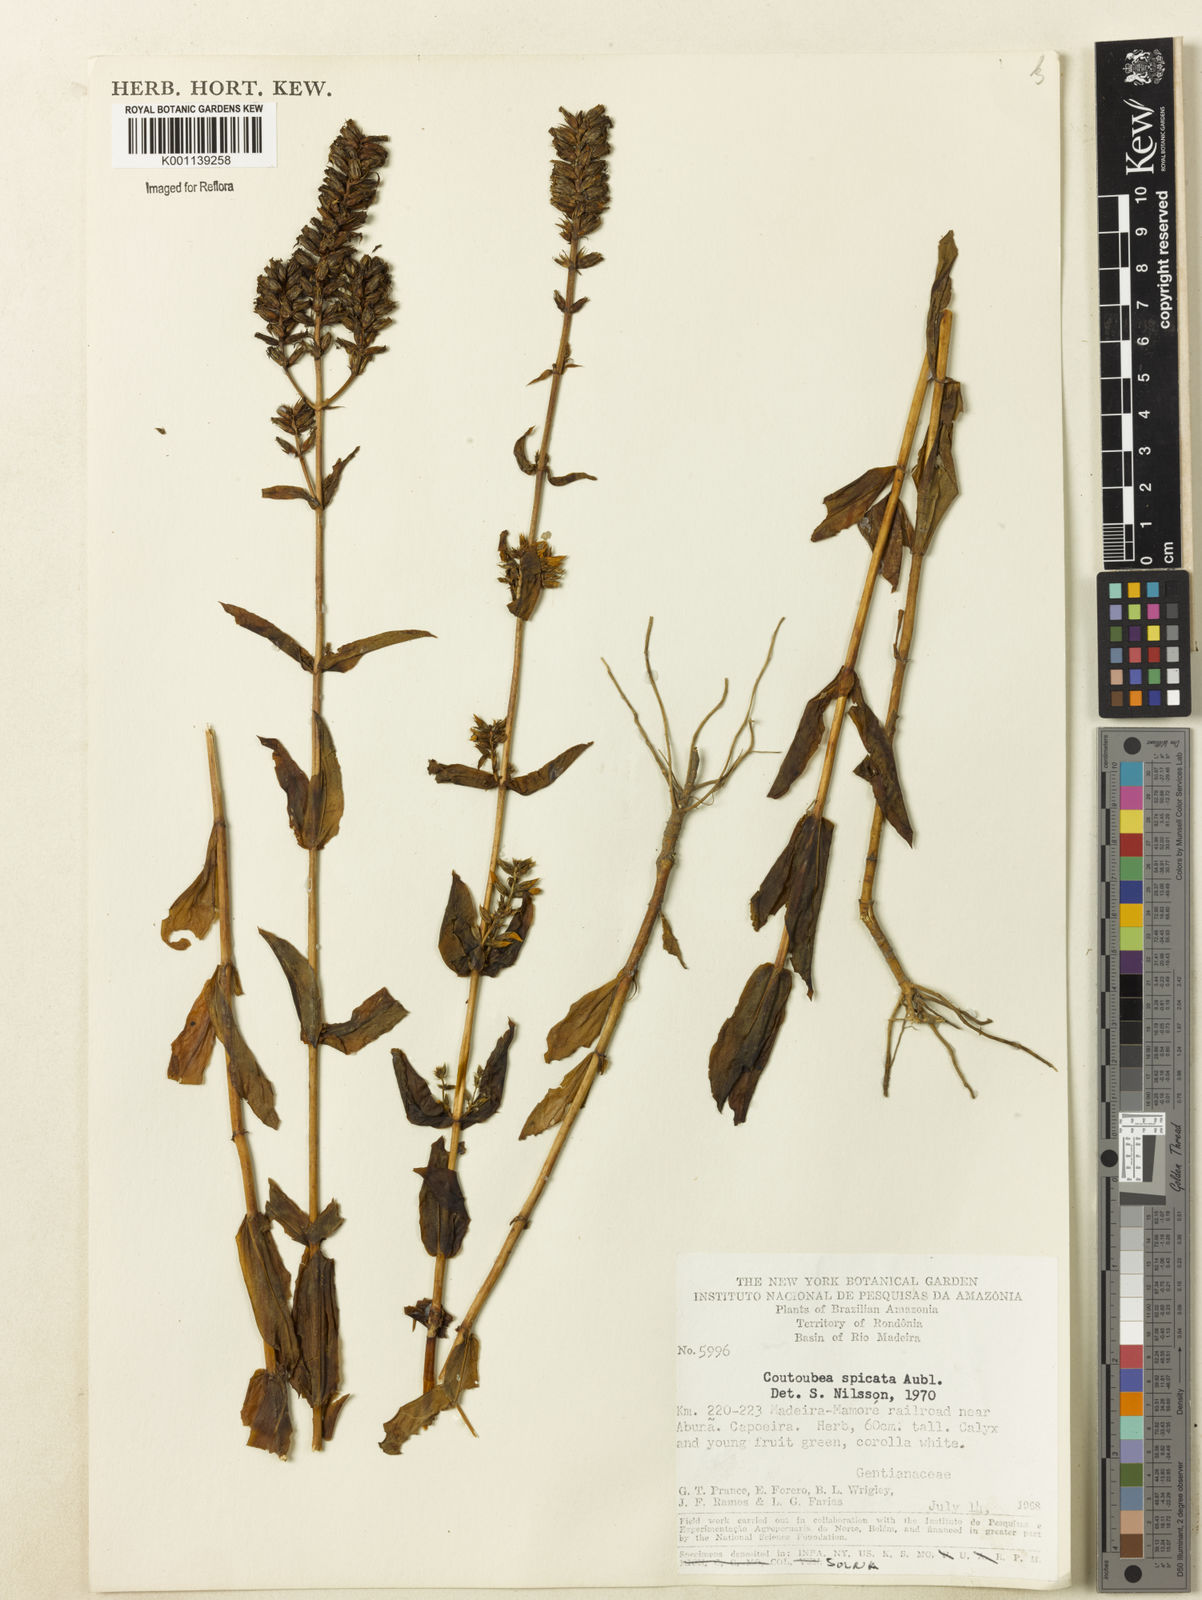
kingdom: Plantae
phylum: Tracheophyta
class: Magnoliopsida
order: Gentianales
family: Gentianaceae
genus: Coutoubea
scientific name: Coutoubea spicata
